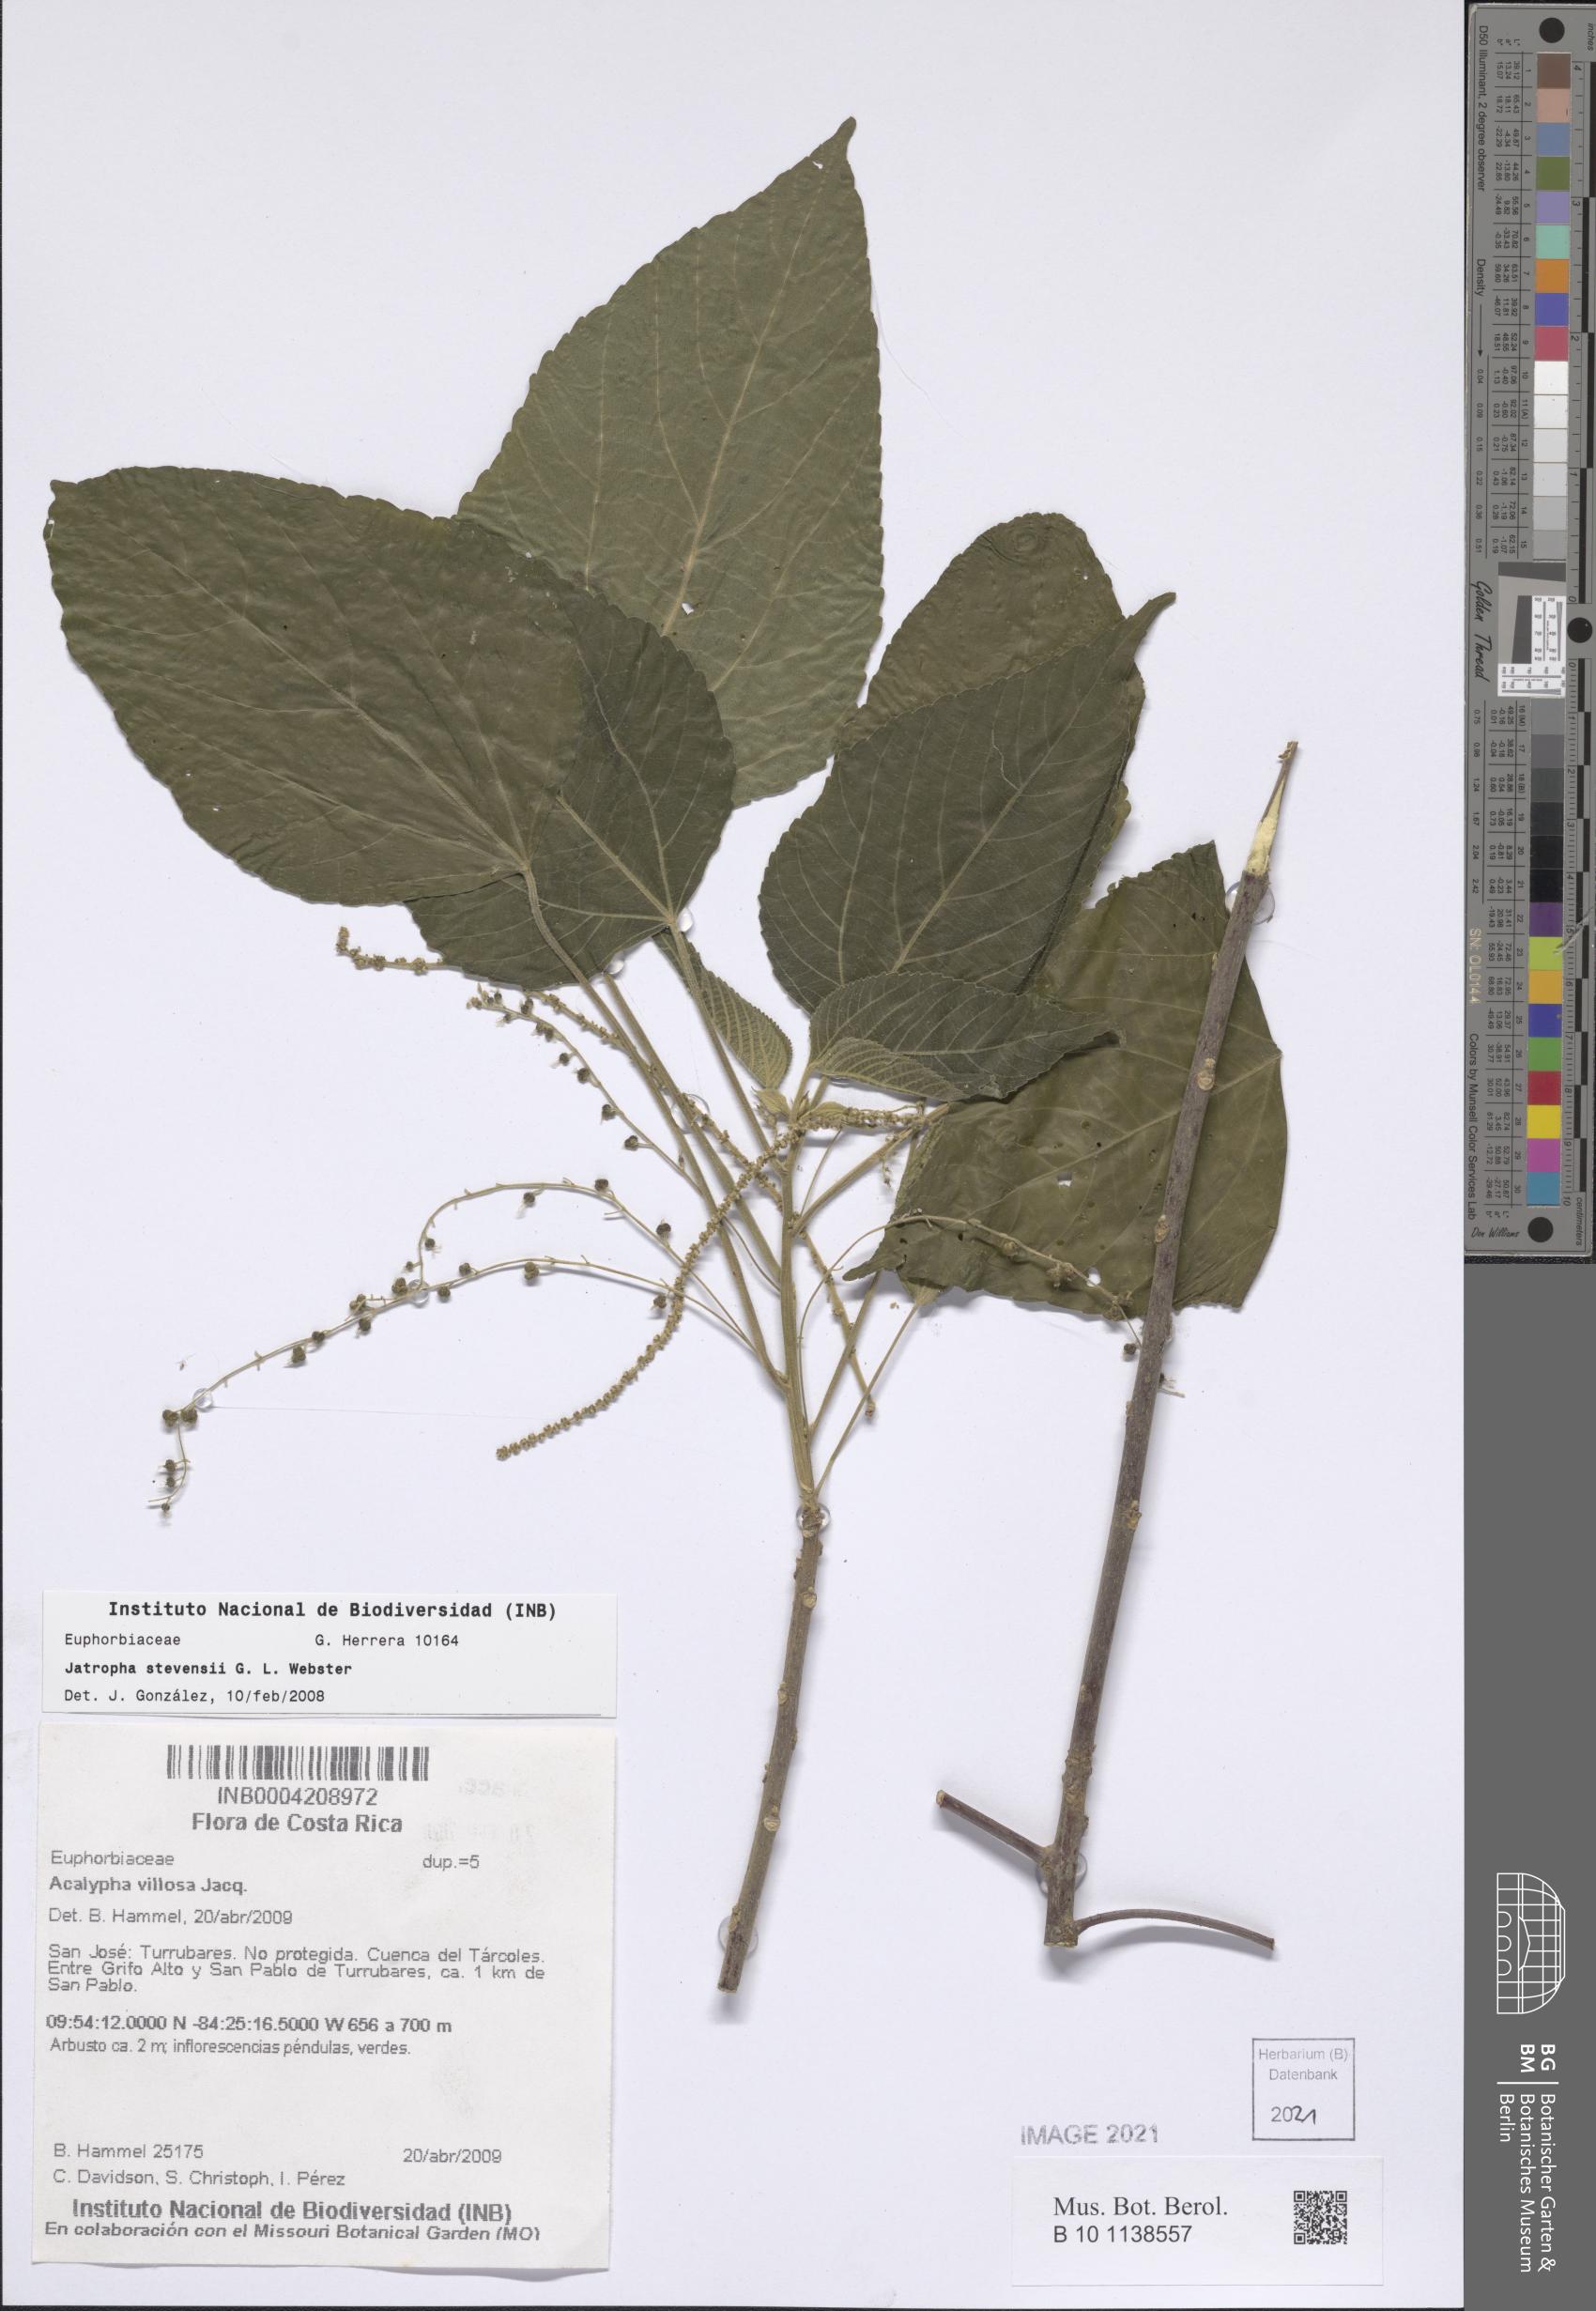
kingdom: Plantae
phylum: Tracheophyta
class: Magnoliopsida
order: Malpighiales
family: Euphorbiaceae
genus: Acalypha
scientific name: Acalypha villosa
